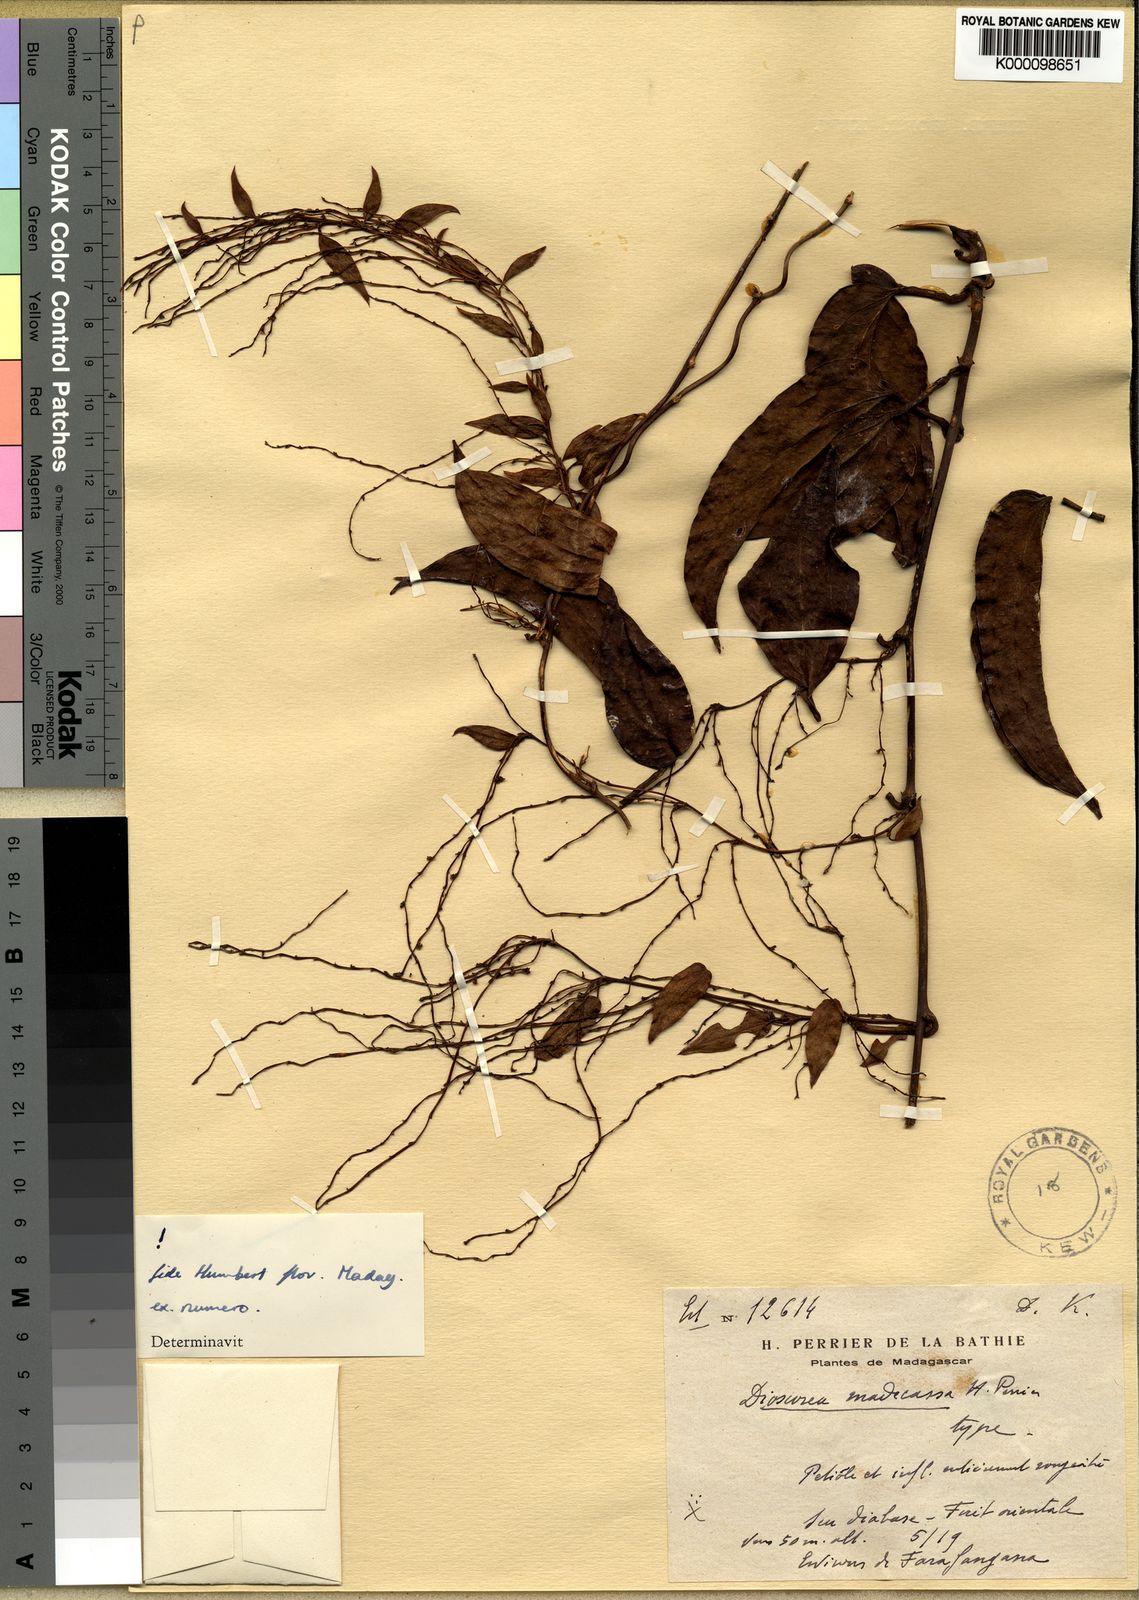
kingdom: Plantae
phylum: Tracheophyta
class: Liliopsida
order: Dioscoreales
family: Dioscoreaceae
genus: Dioscorea
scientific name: Dioscorea madecassa
